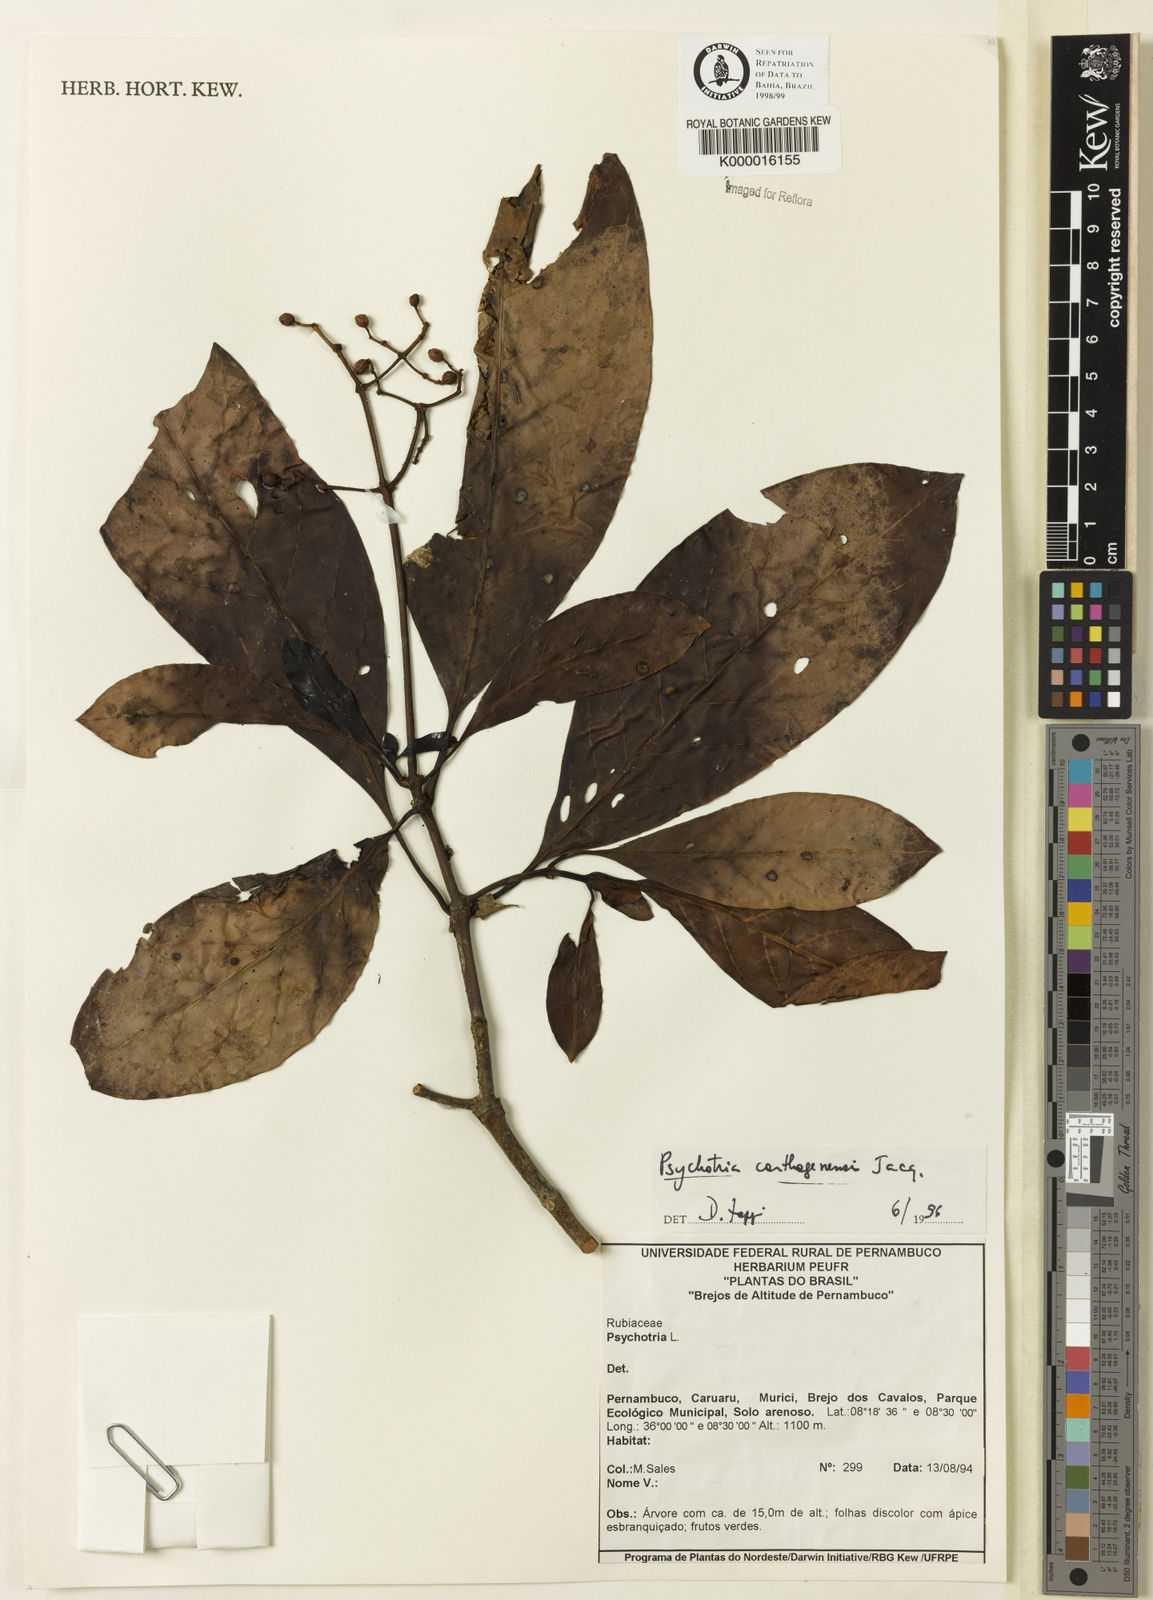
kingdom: Plantae
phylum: Tracheophyta
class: Magnoliopsida
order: Gentianales
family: Rubiaceae
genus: Psychotria
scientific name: Psychotria carthagenensis
